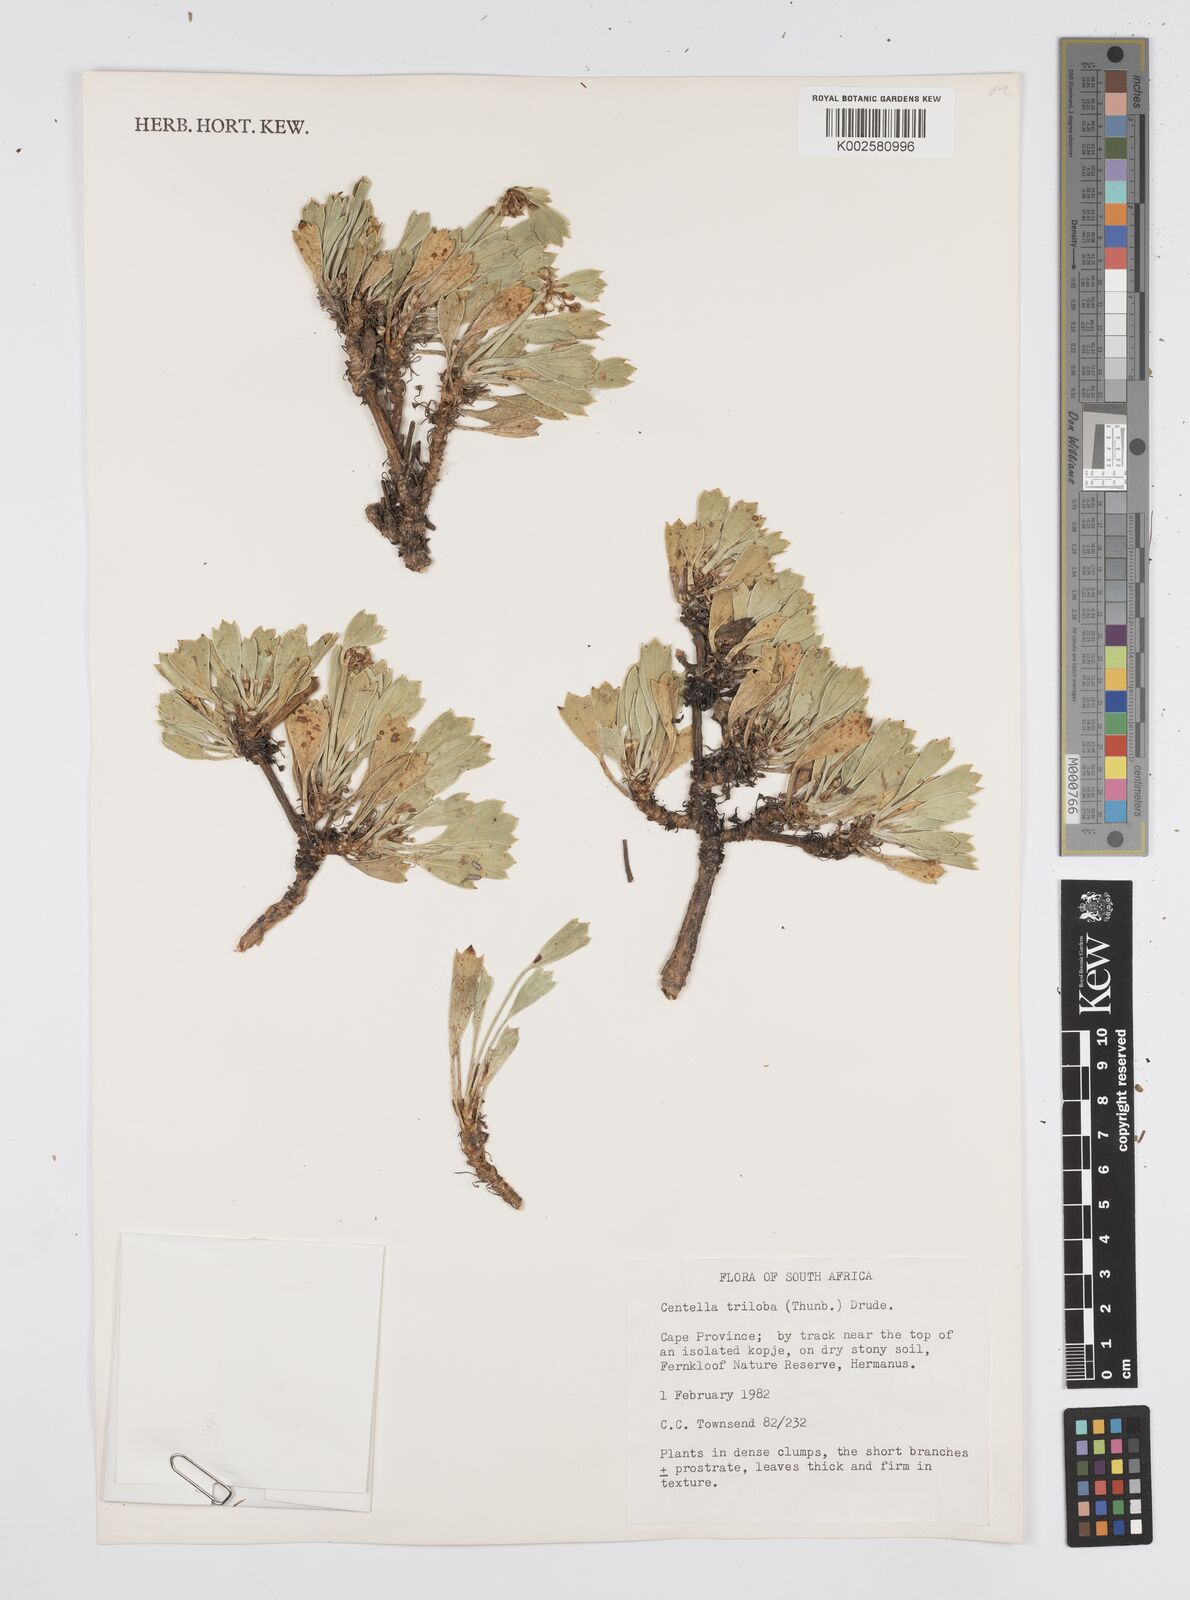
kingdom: Plantae
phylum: Tracheophyta
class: Magnoliopsida
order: Apiales
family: Apiaceae
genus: Centella
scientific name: Centella triloba
